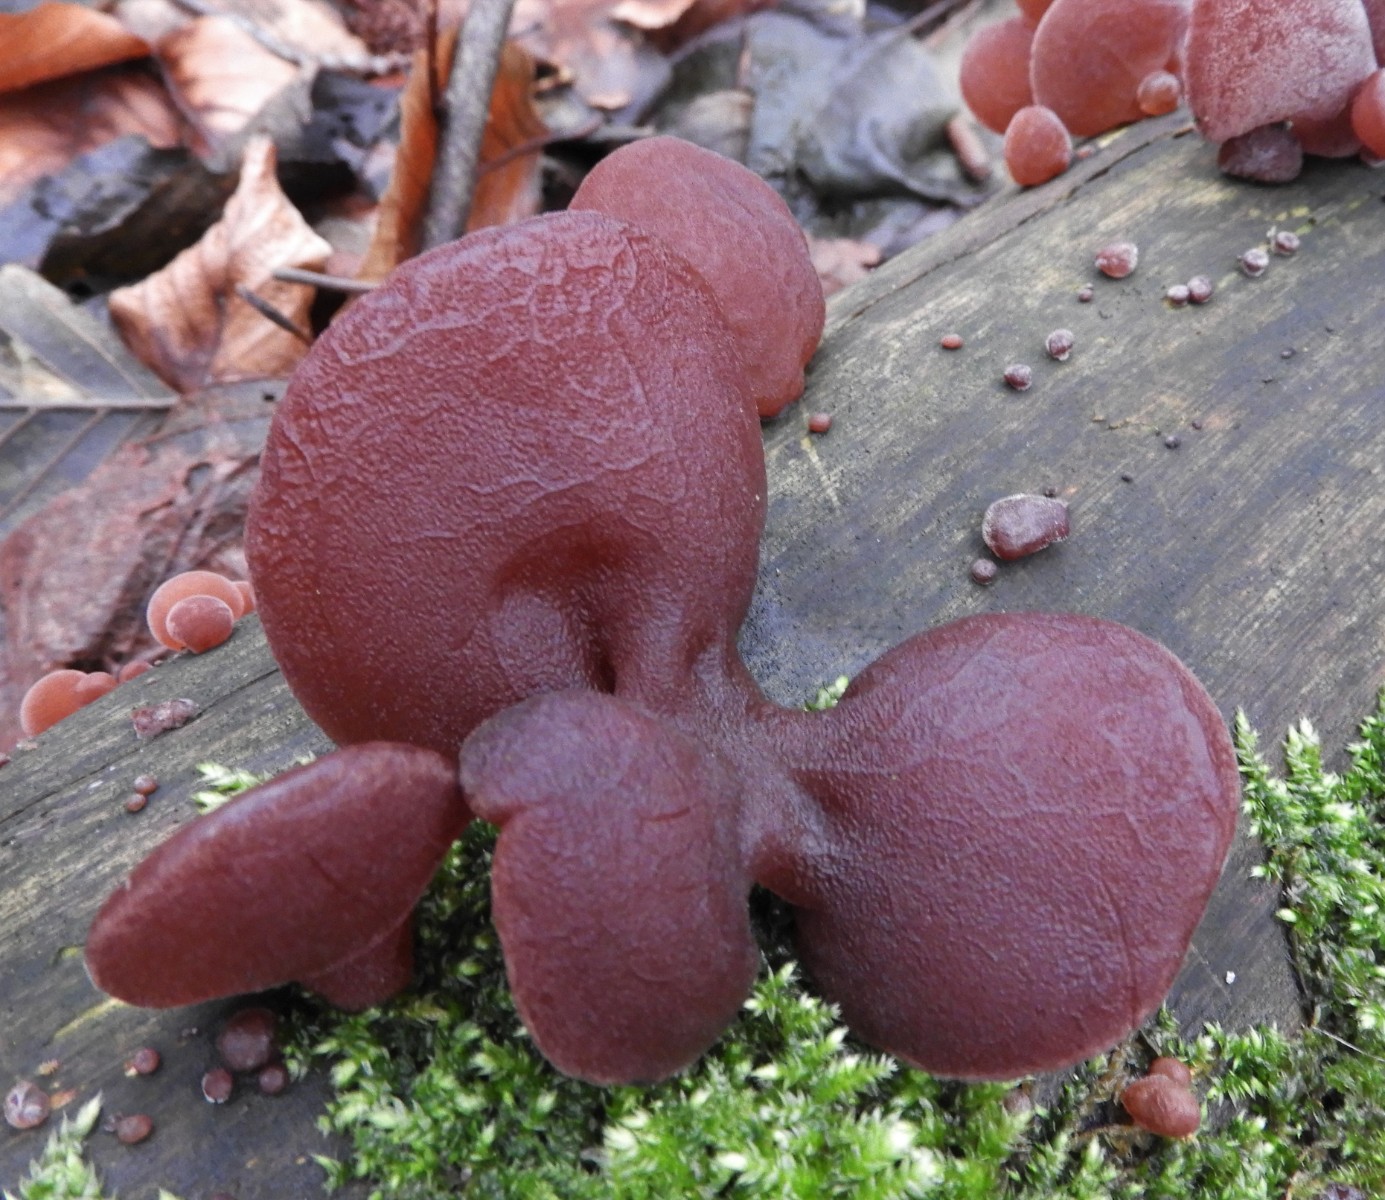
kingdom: Fungi
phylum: Basidiomycota
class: Agaricomycetes
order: Auriculariales
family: Auriculariaceae
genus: Auricularia
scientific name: Auricularia auricula-judae
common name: almindelig judasøre
